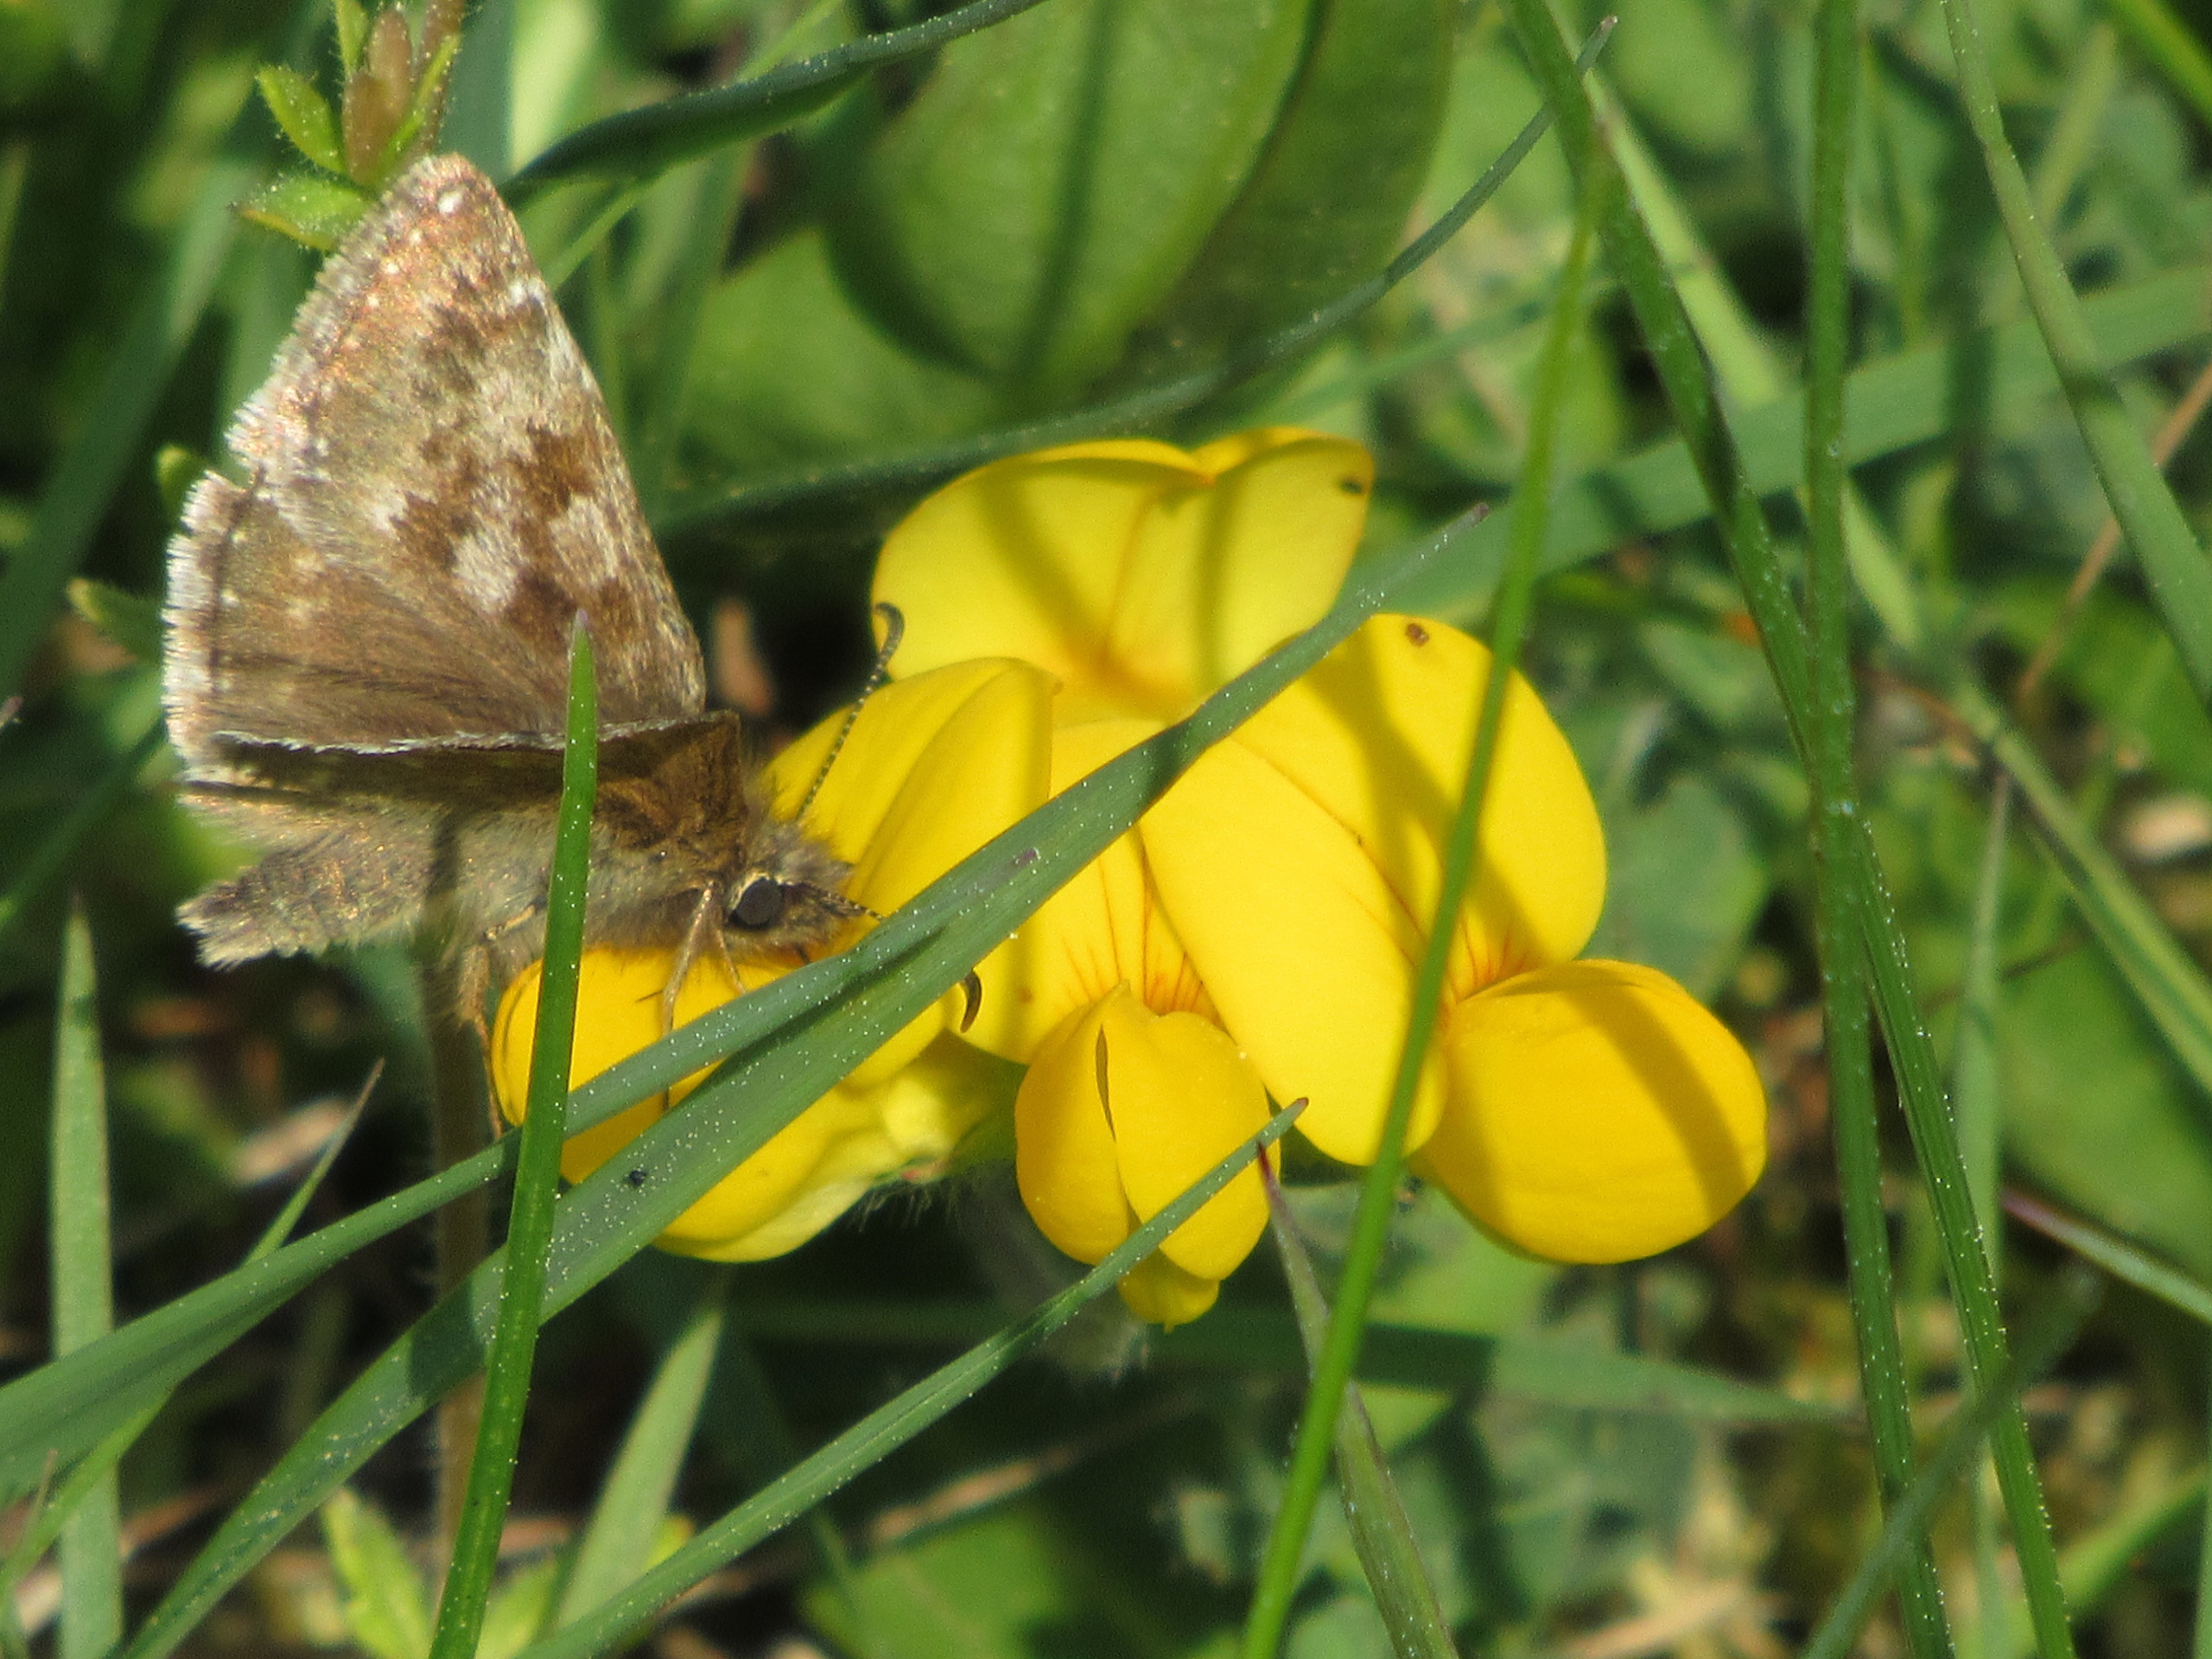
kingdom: Animalia
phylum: Arthropoda
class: Insecta
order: Lepidoptera
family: Hesperiidae
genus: Erynnis
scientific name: Erynnis tages
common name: Gråbåndet bredpande
